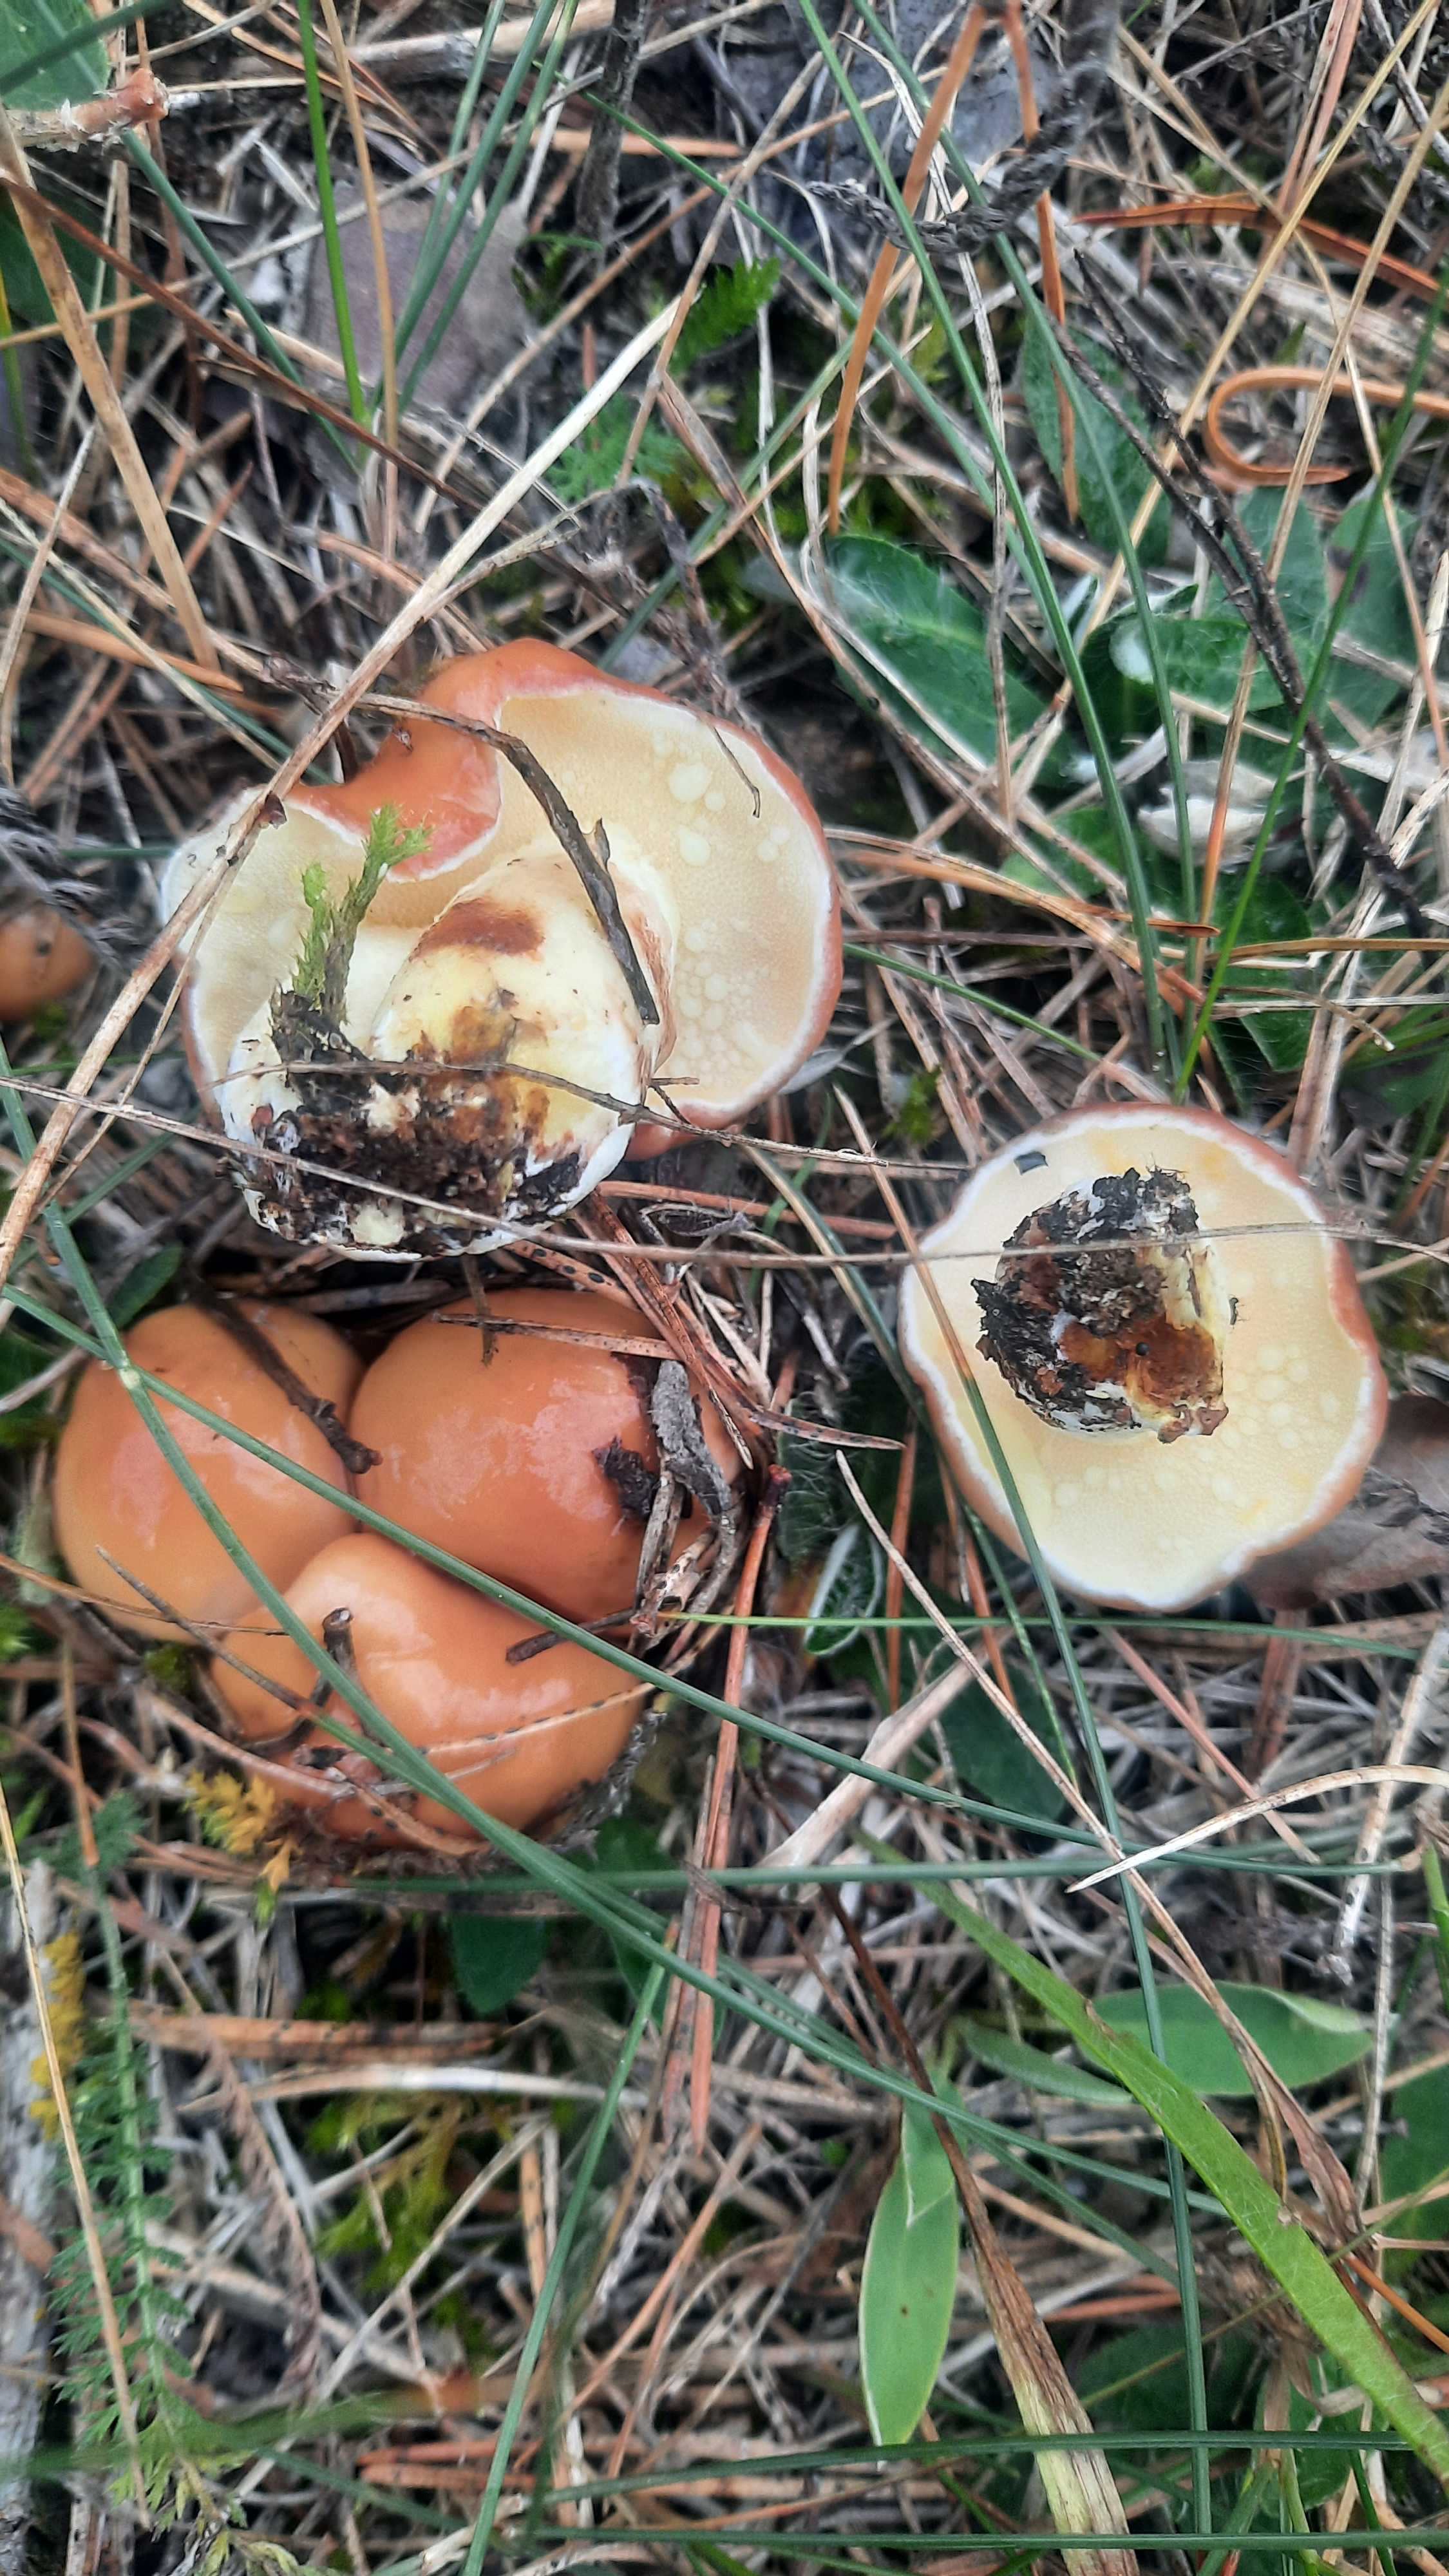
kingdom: Fungi
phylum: Basidiomycota
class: Agaricomycetes
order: Boletales
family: Suillaceae
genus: Suillus
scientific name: Suillus granulatus
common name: kornet slimrørhat
